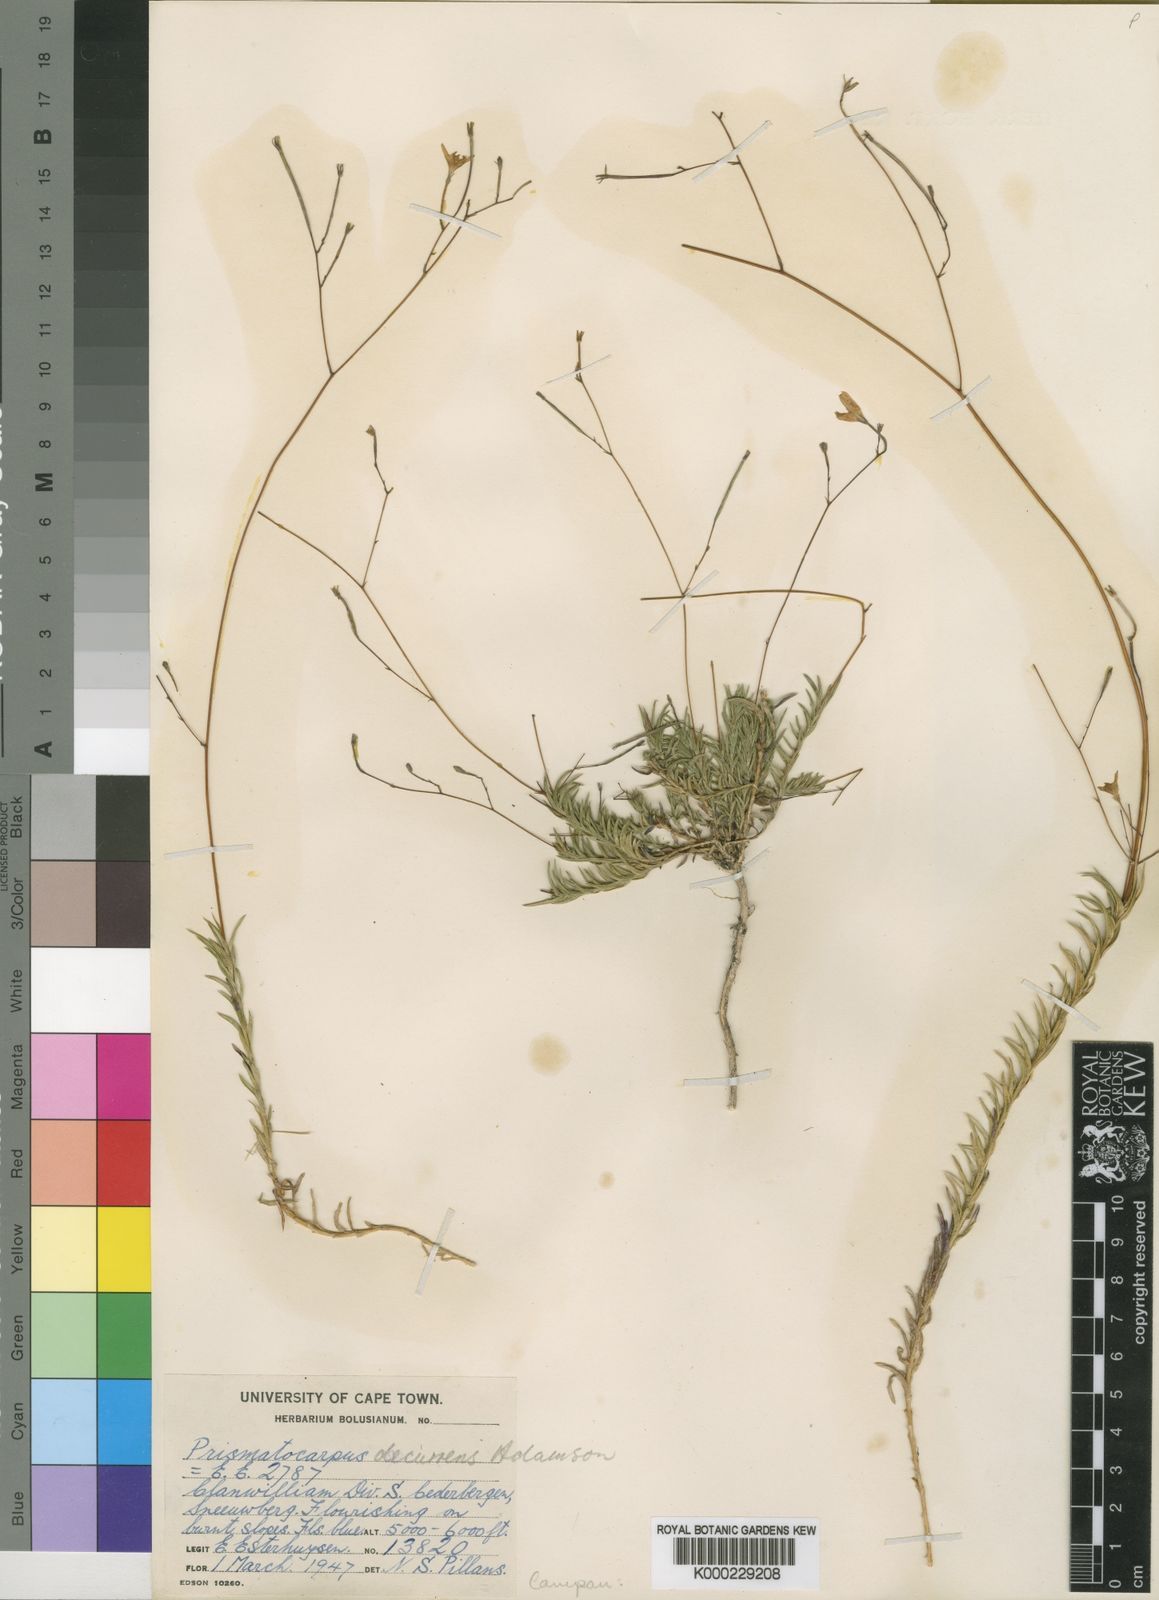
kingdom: Plantae
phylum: Tracheophyta
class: Magnoliopsida
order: Asterales
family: Campanulaceae
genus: Prismatocarpus
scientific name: Prismatocarpus decurrens
